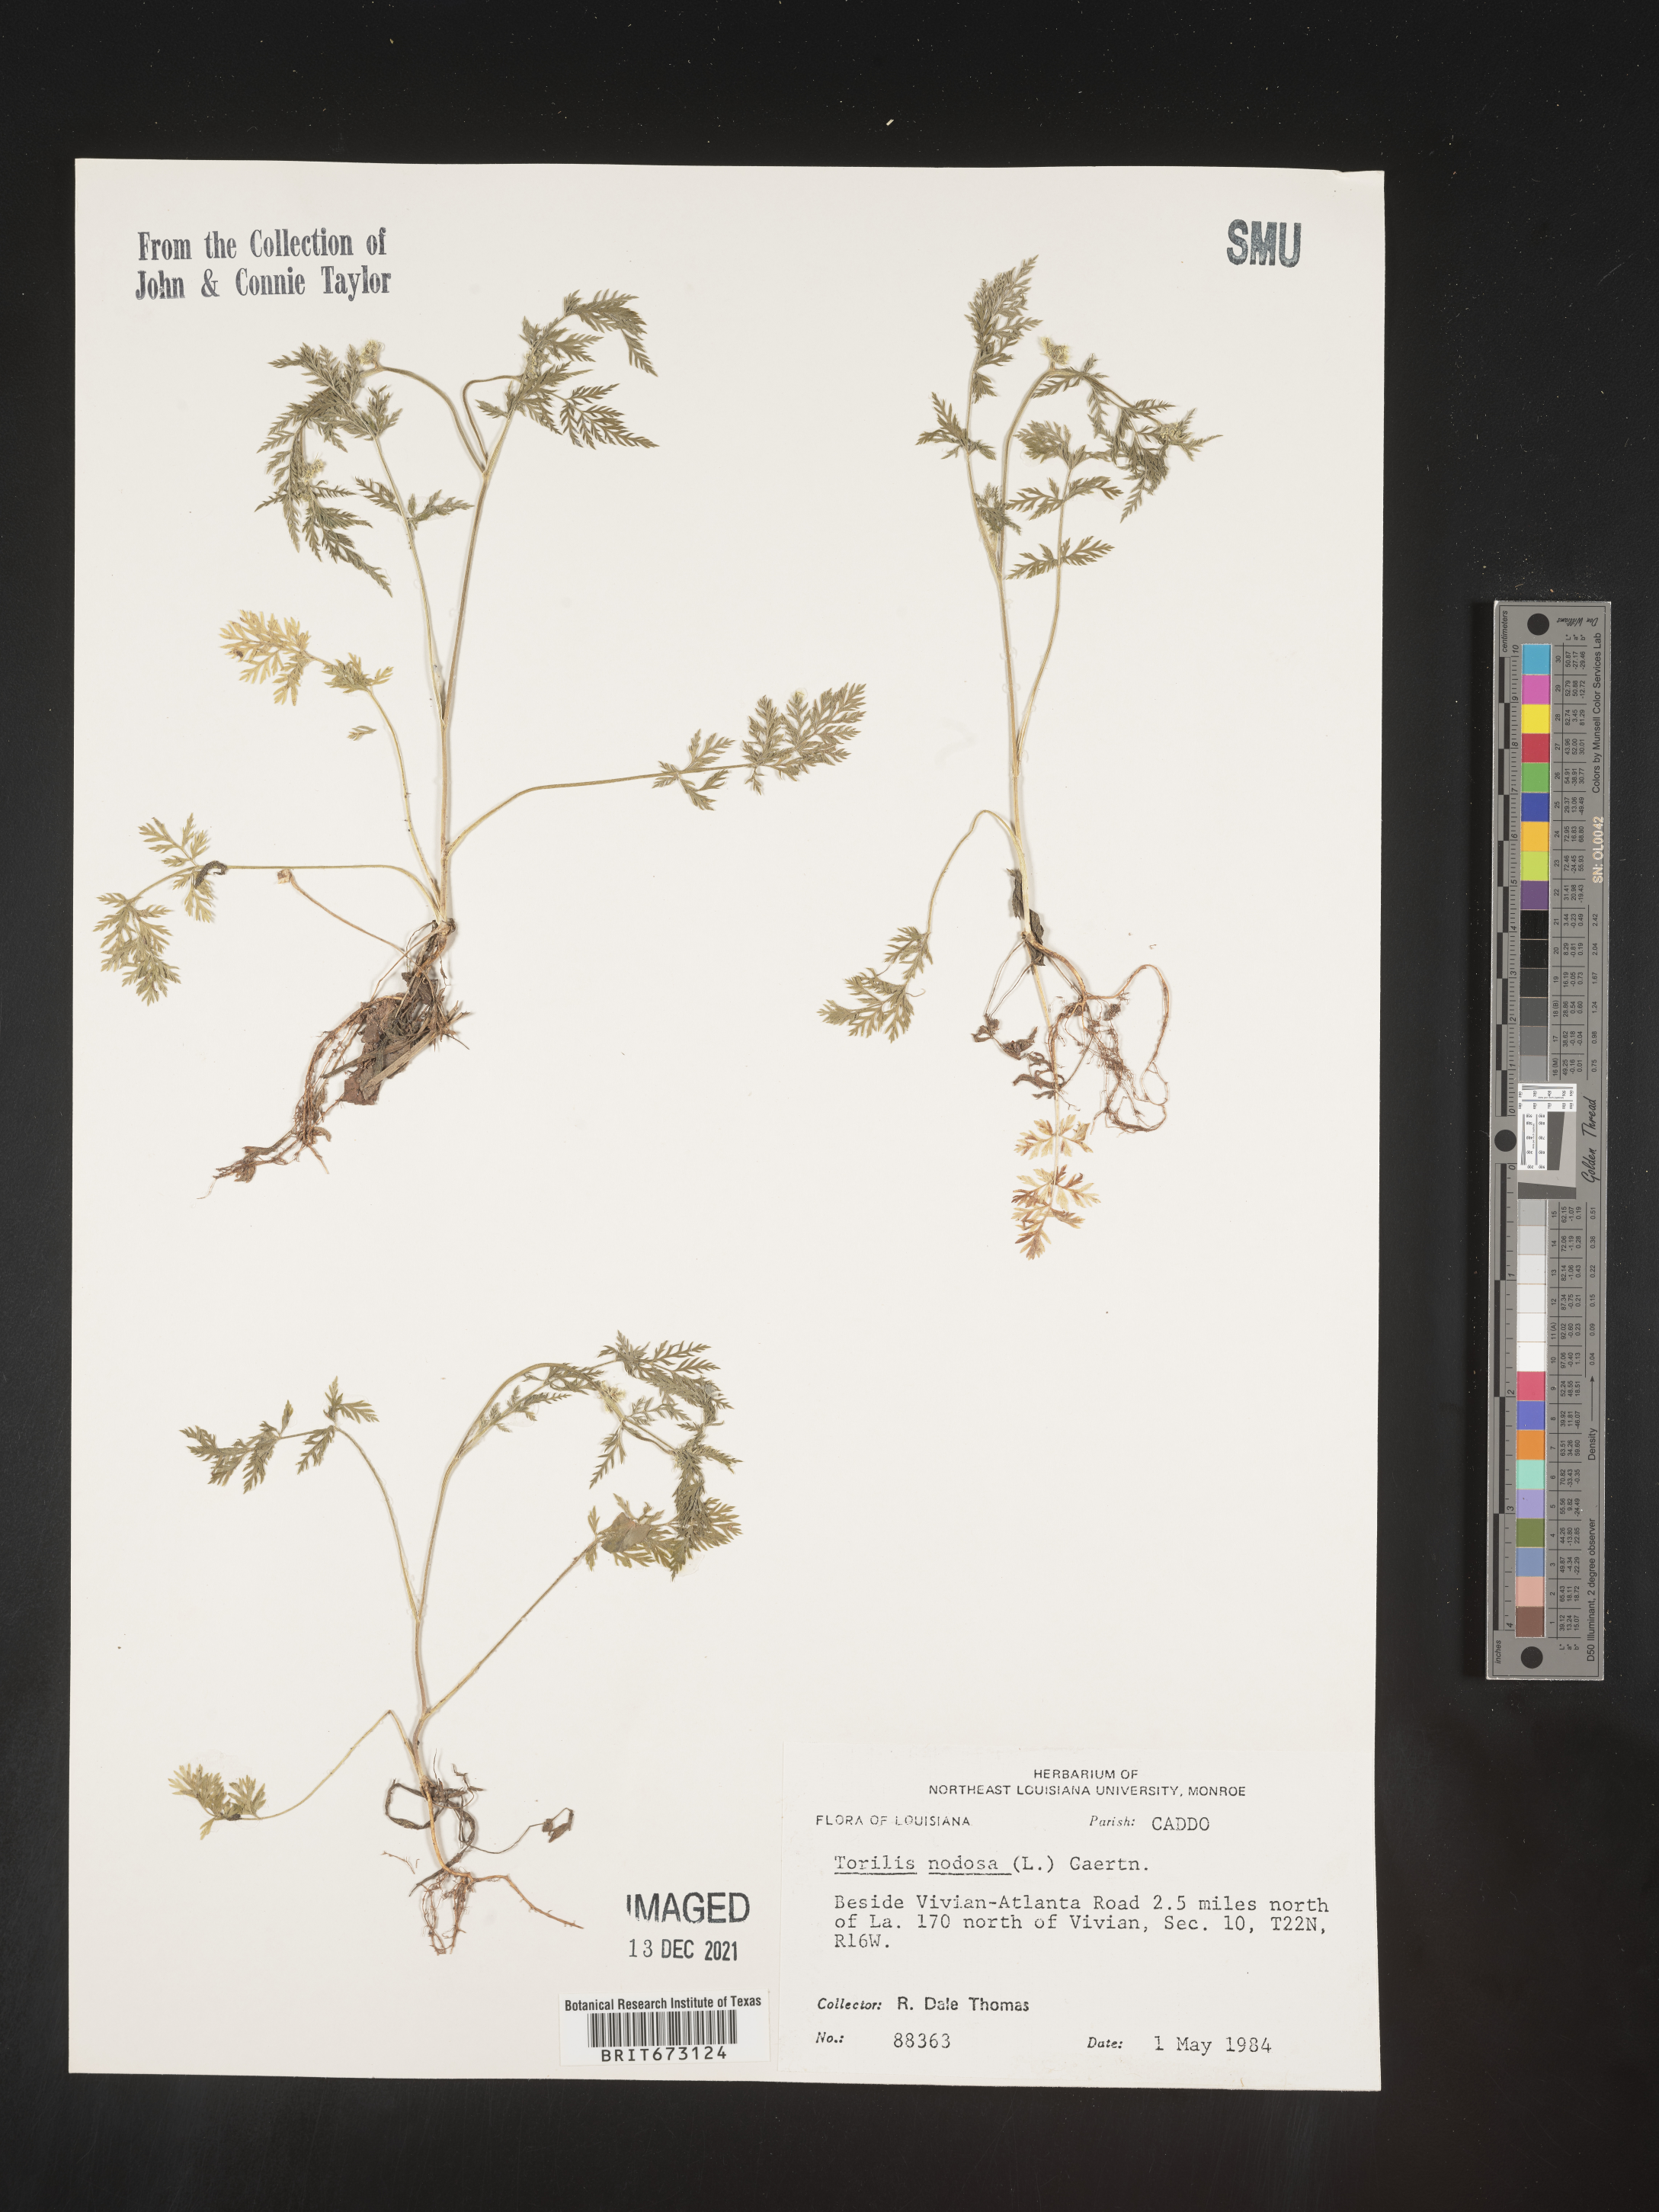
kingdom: Plantae
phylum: Tracheophyta
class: Magnoliopsida
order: Apiales
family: Apiaceae
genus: Torilis
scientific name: Torilis nodosa
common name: Knotted hedge-parsley
